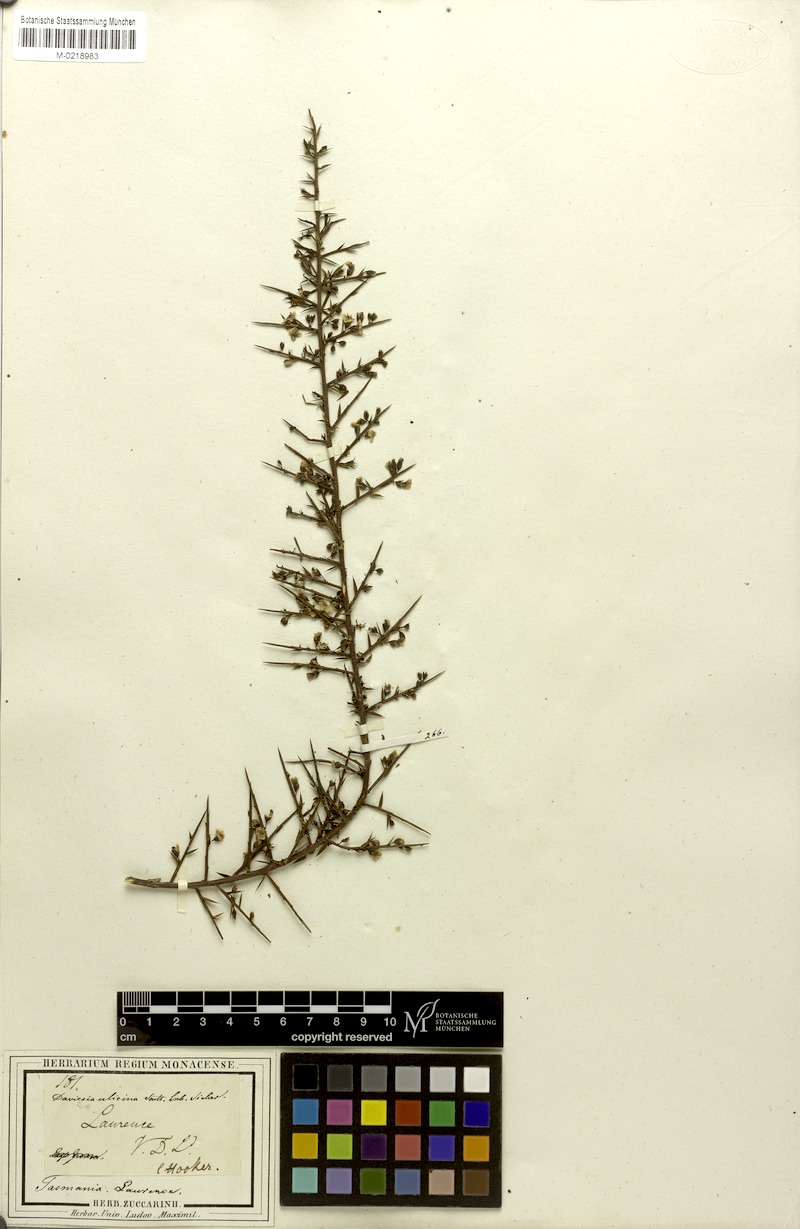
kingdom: Plantae
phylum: Tracheophyta
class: Magnoliopsida
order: Fabales
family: Fabaceae
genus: Daviesia
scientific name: Daviesia ulicifolia
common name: Gorse bitter-pea
